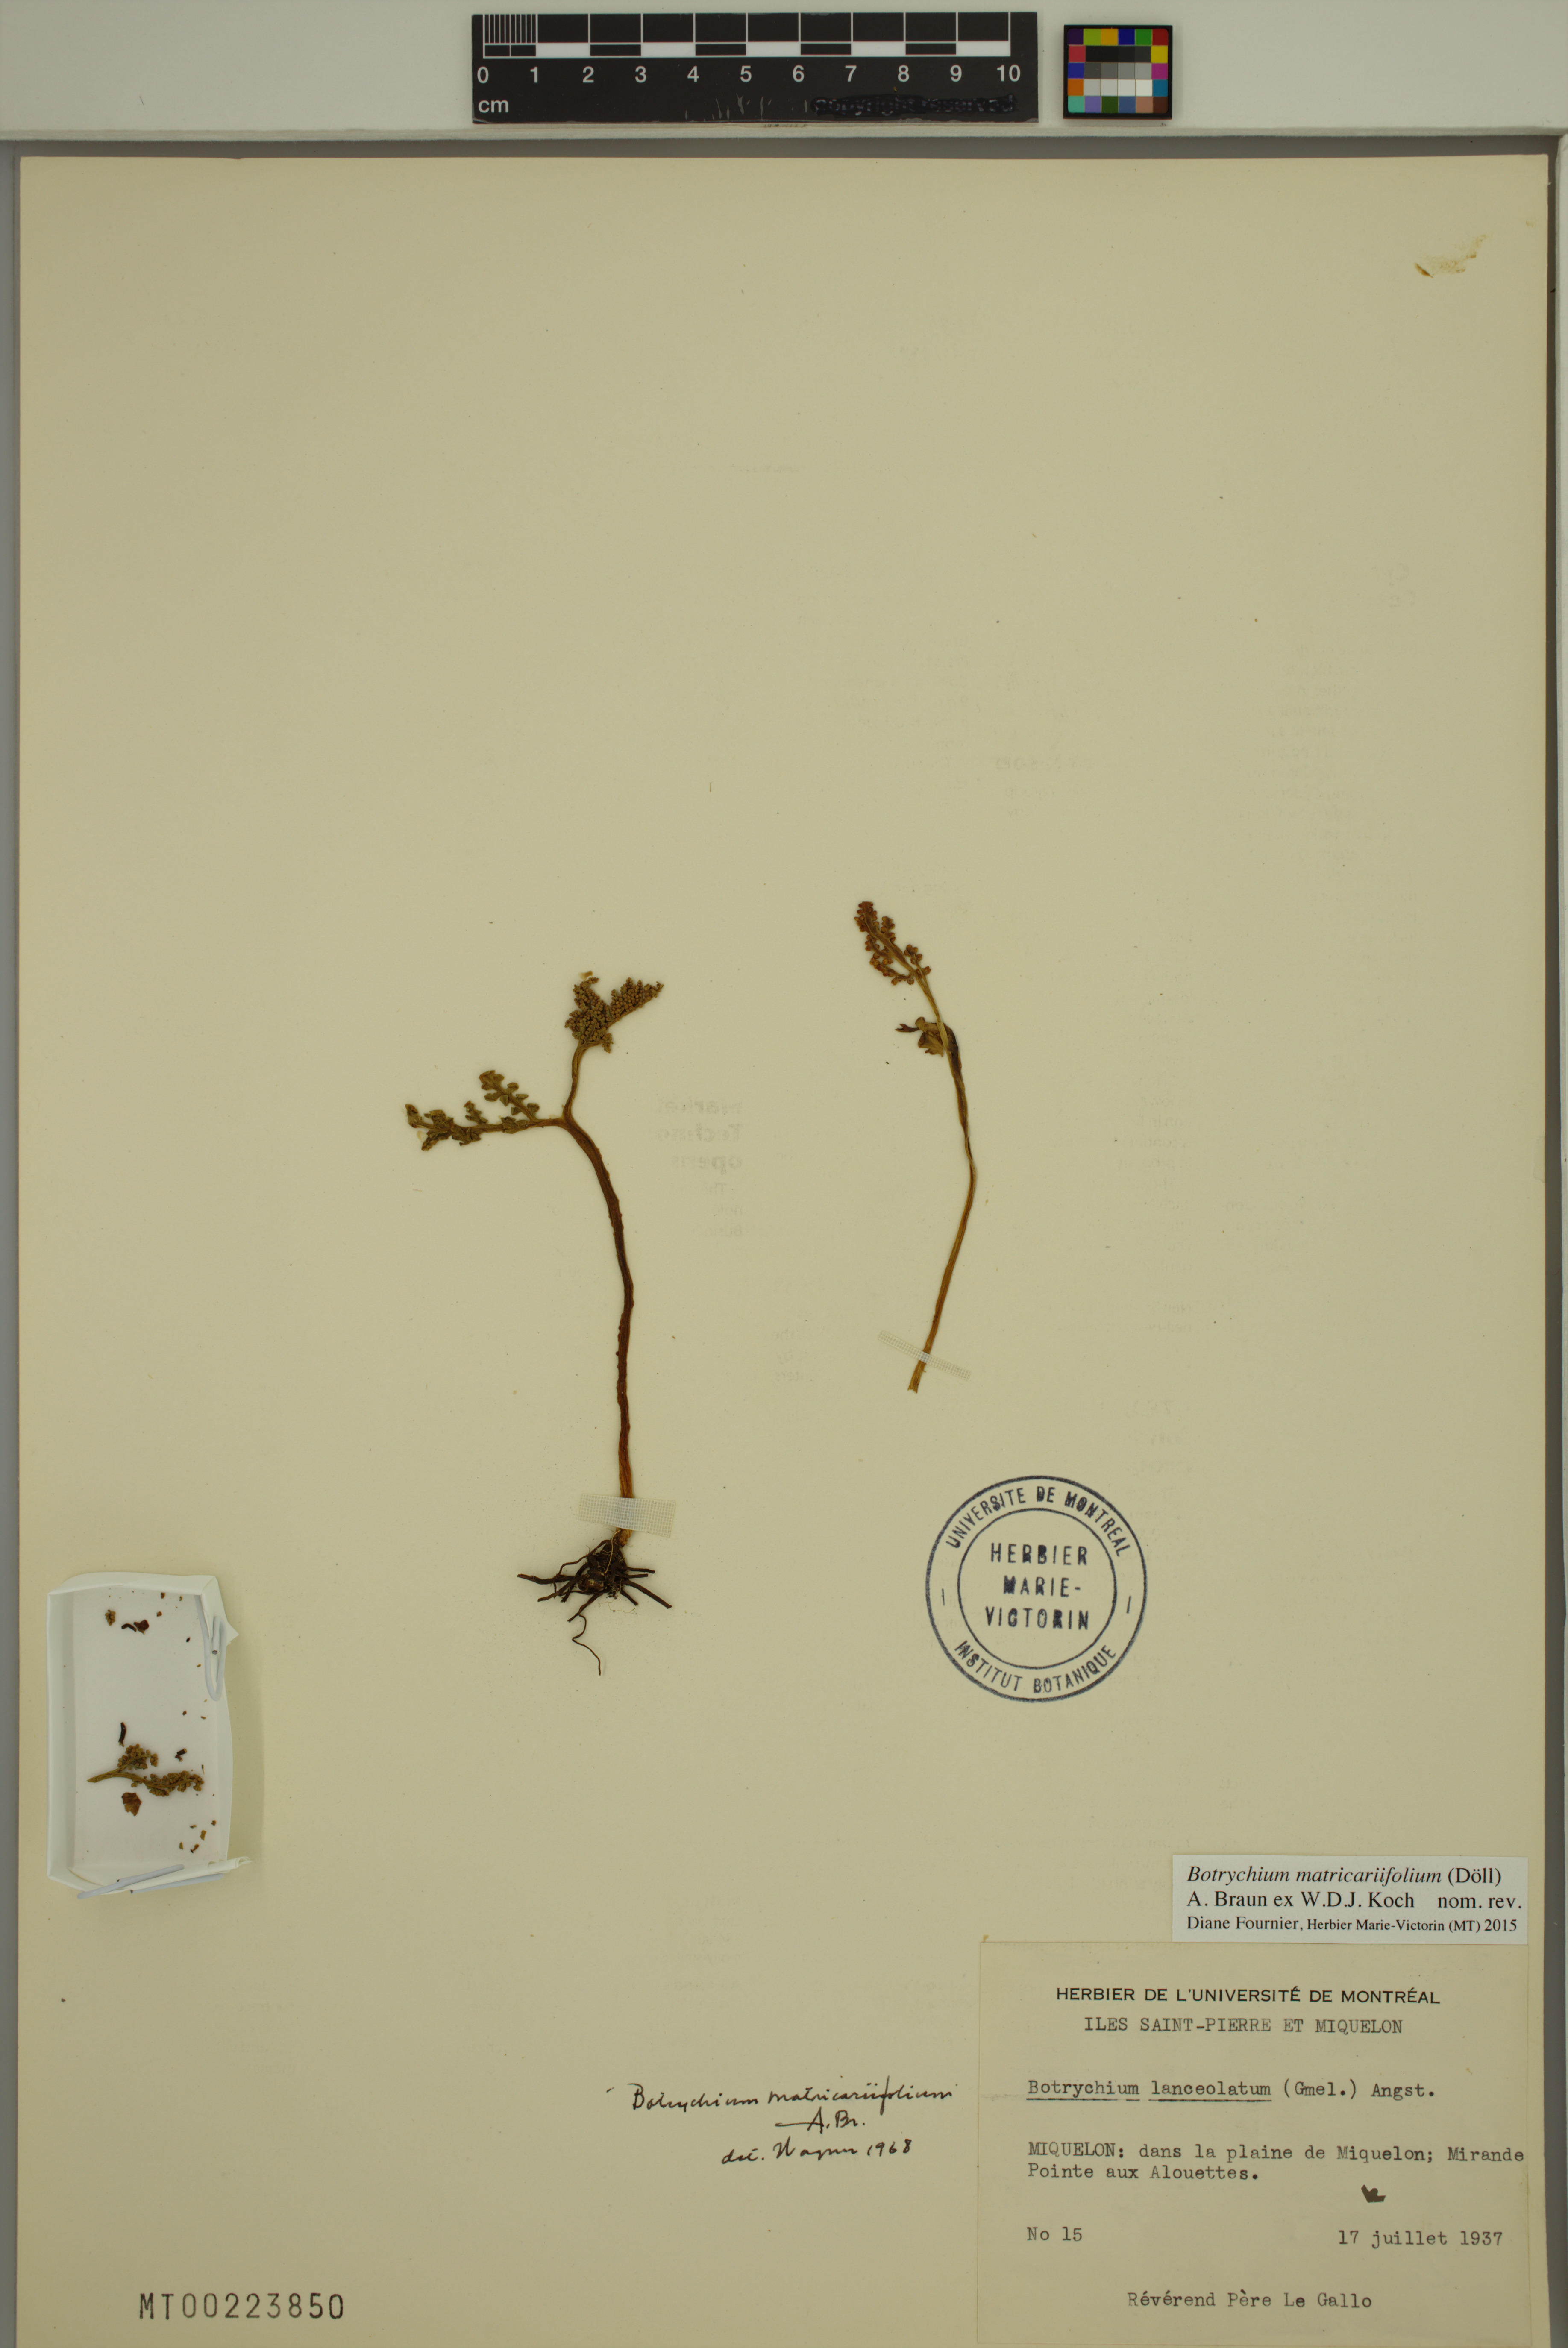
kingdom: Plantae
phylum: Tracheophyta
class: Polypodiopsida
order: Ophioglossales
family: Ophioglossaceae
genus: Botrychium
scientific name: Botrychium matricariifolium
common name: Branched moonwort
